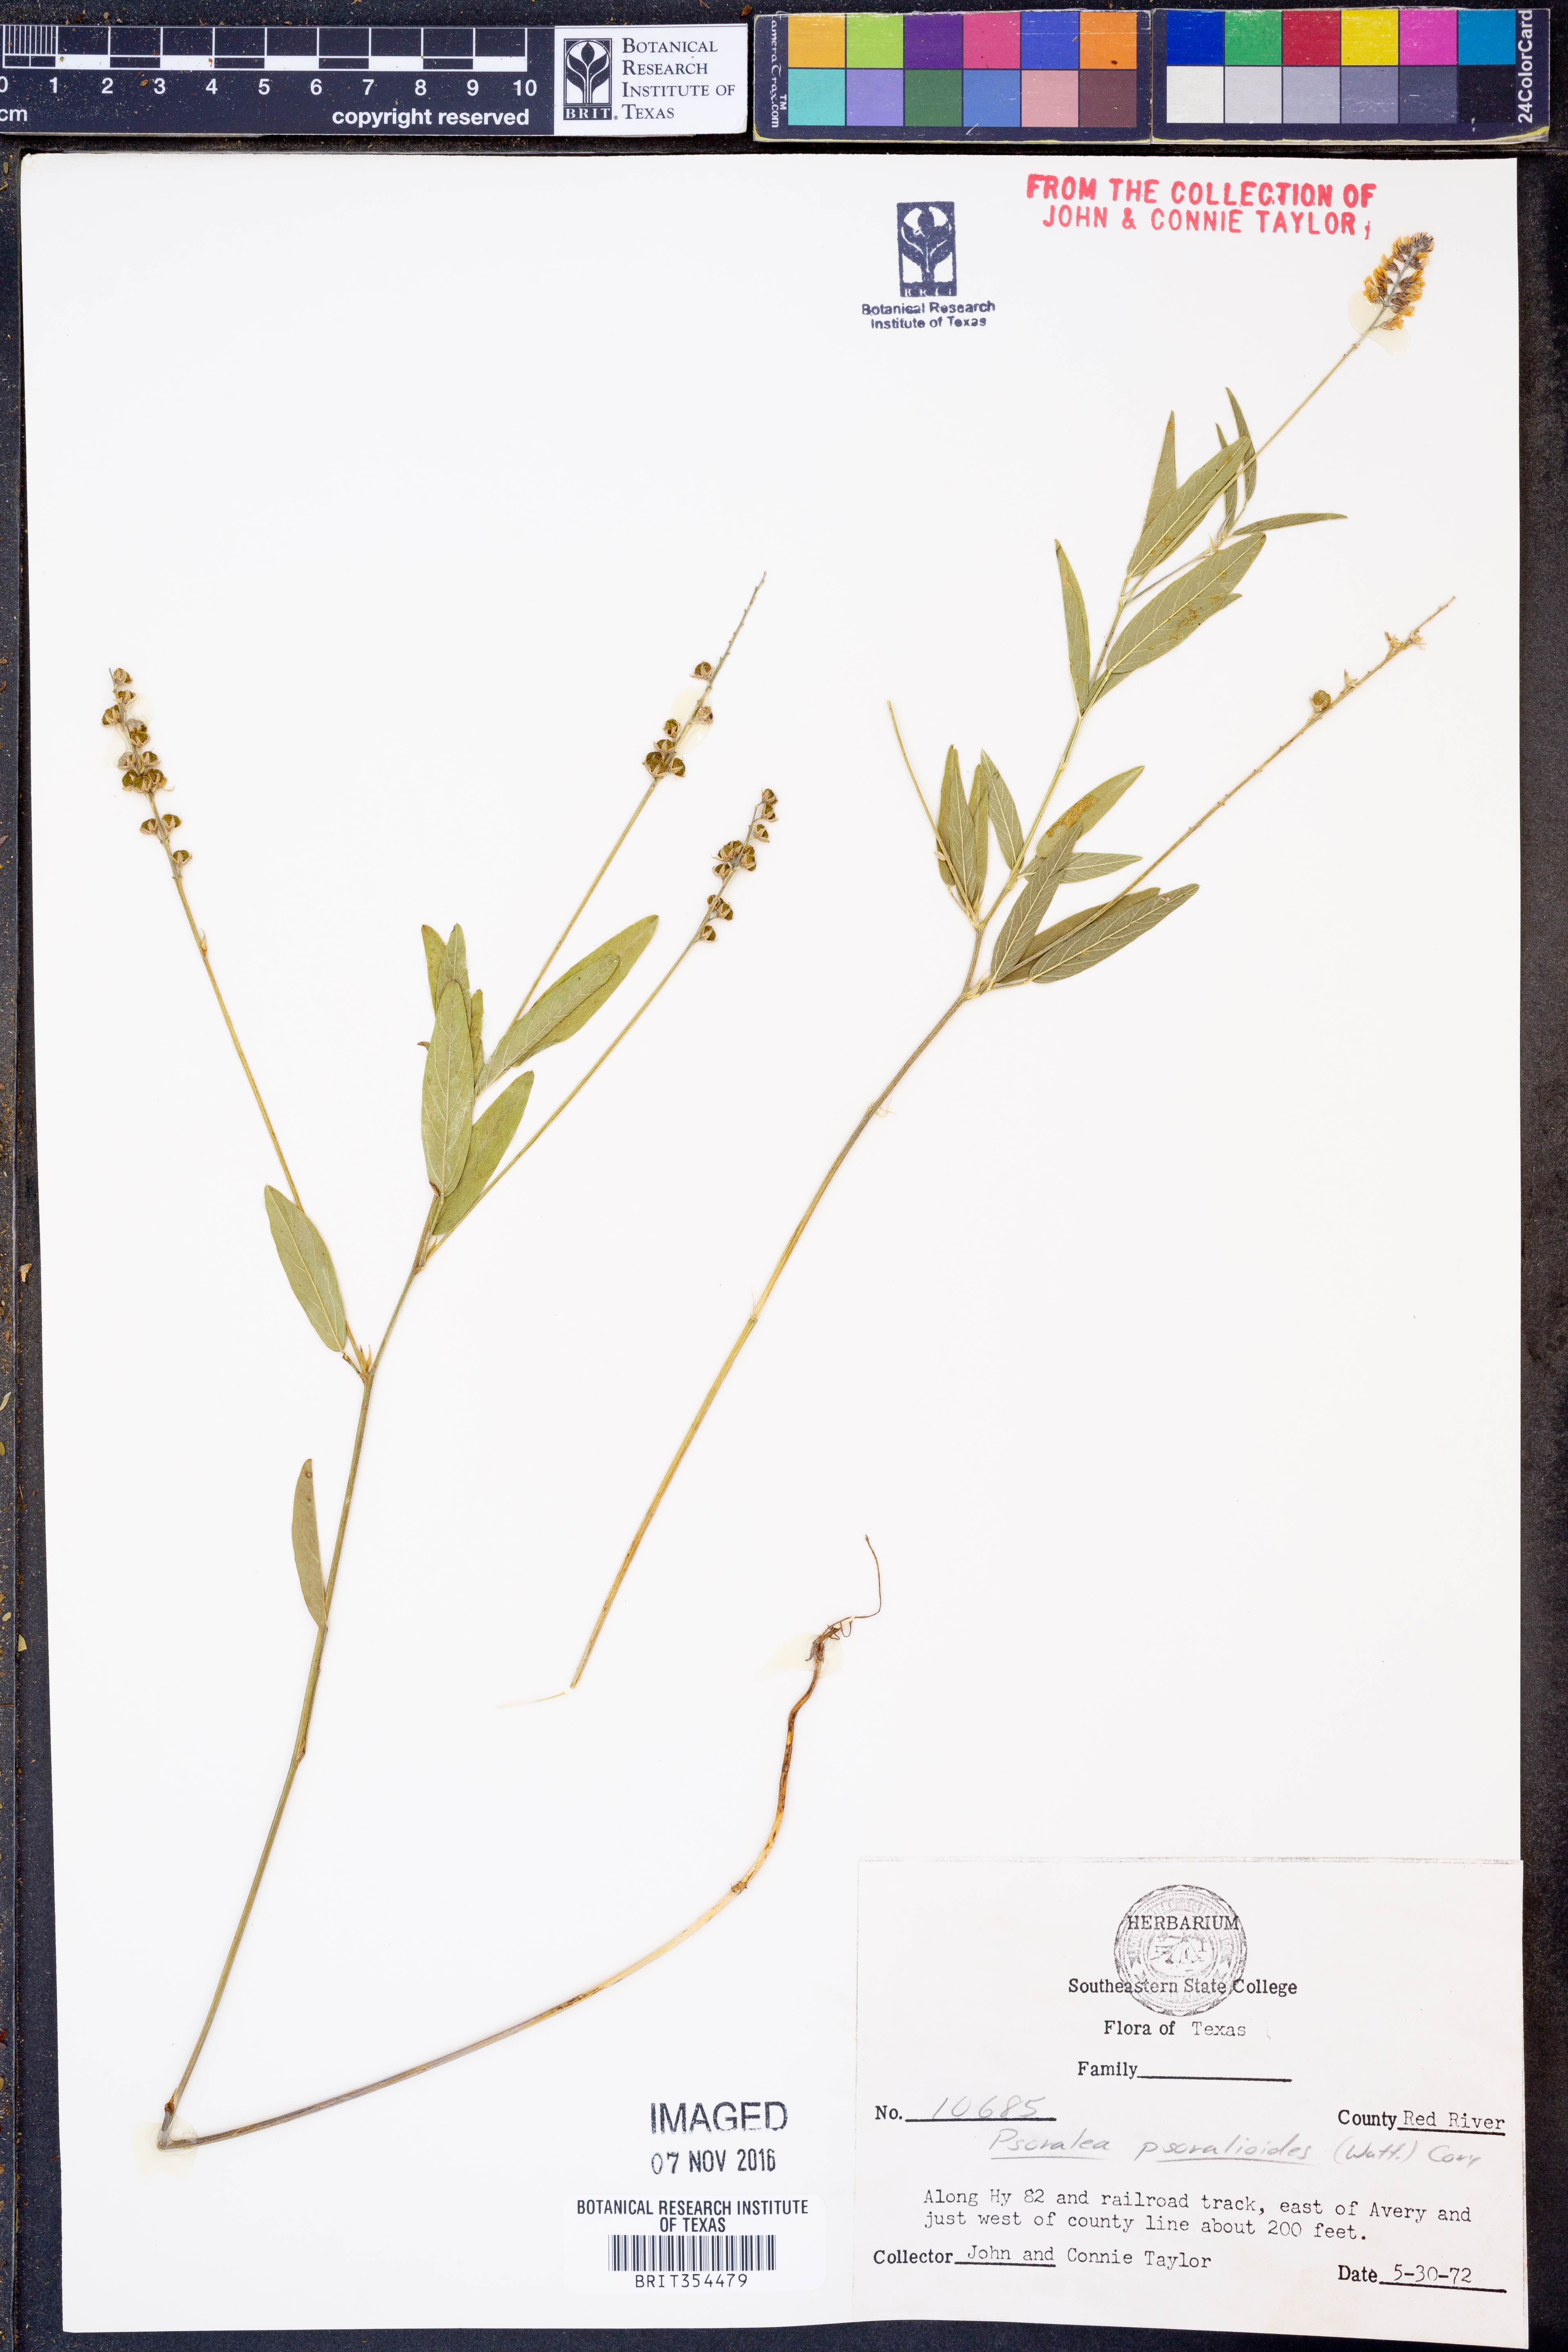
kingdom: Plantae
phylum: Tracheophyta
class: Magnoliopsida
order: Fabales
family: Fabaceae
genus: Orbexilum
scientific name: Orbexilum psoralioides
